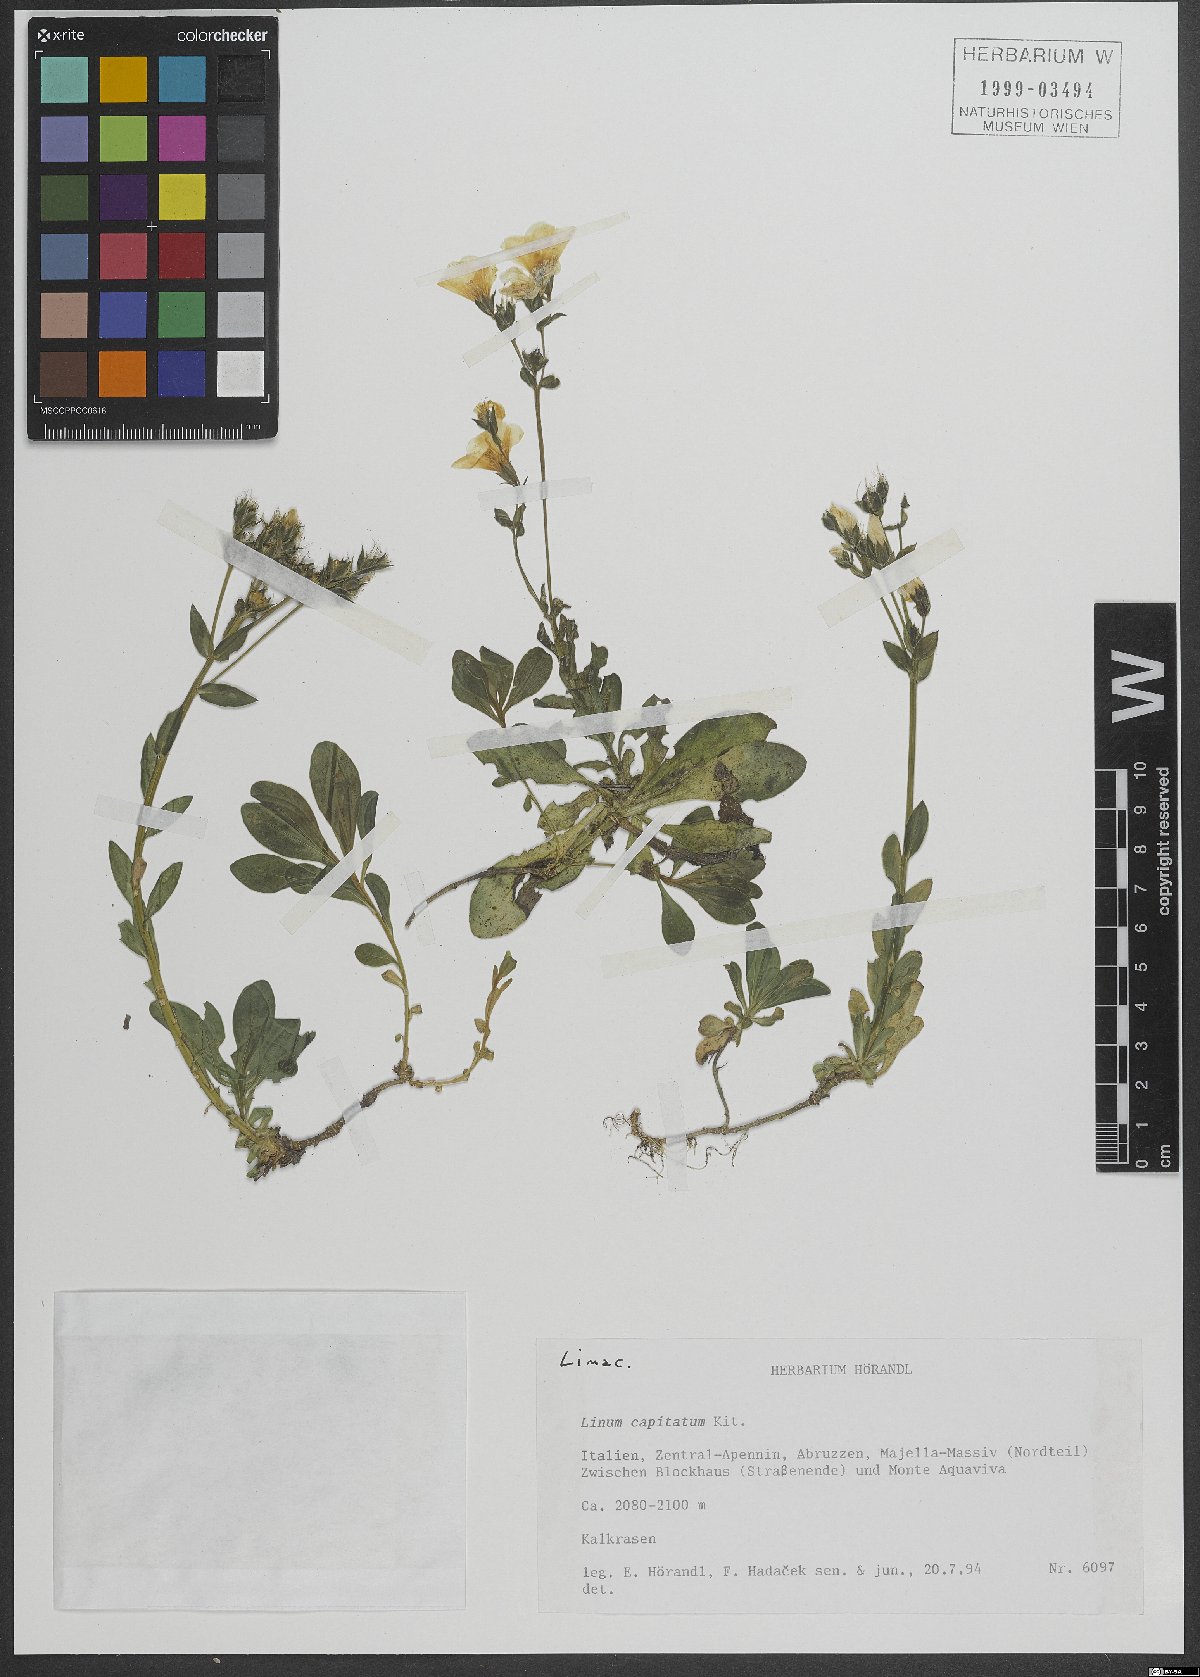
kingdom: Plantae
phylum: Tracheophyta
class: Magnoliopsida
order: Malpighiales
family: Linaceae
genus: Linum
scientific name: Linum capitatum
